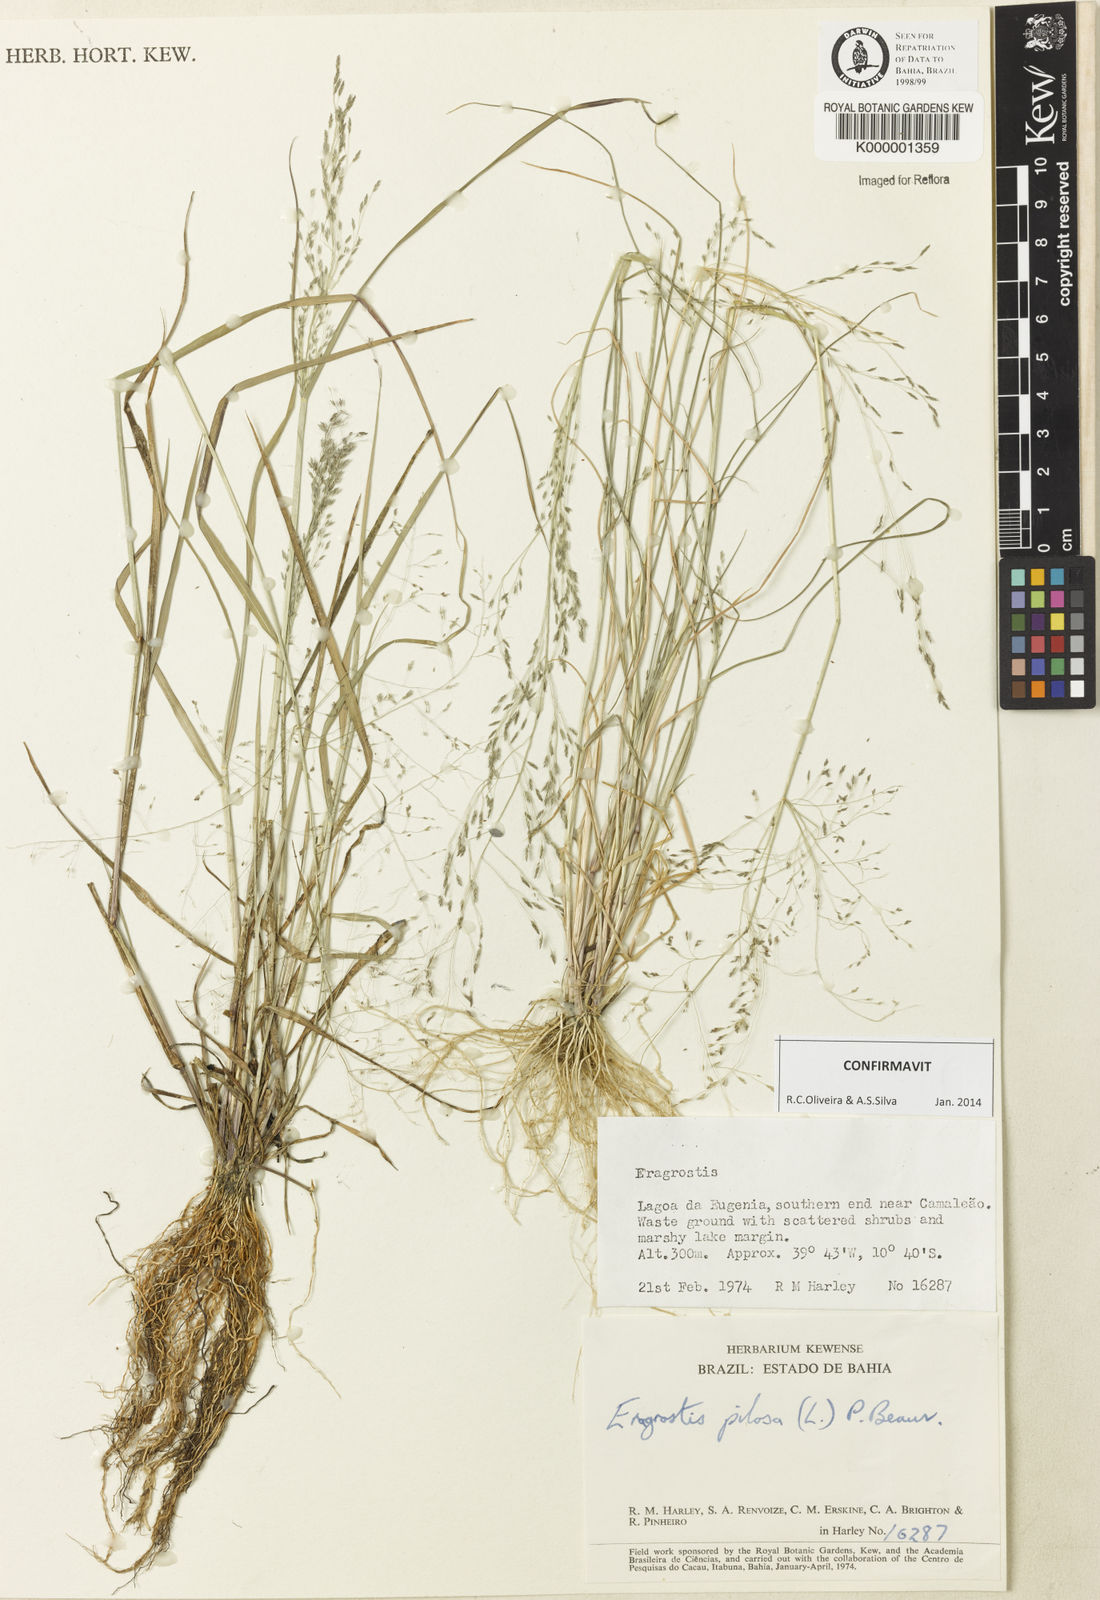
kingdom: Plantae
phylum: Tracheophyta
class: Liliopsida
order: Poales
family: Poaceae
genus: Eragrostis
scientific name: Eragrostis pilosa
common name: Indian lovegrass
